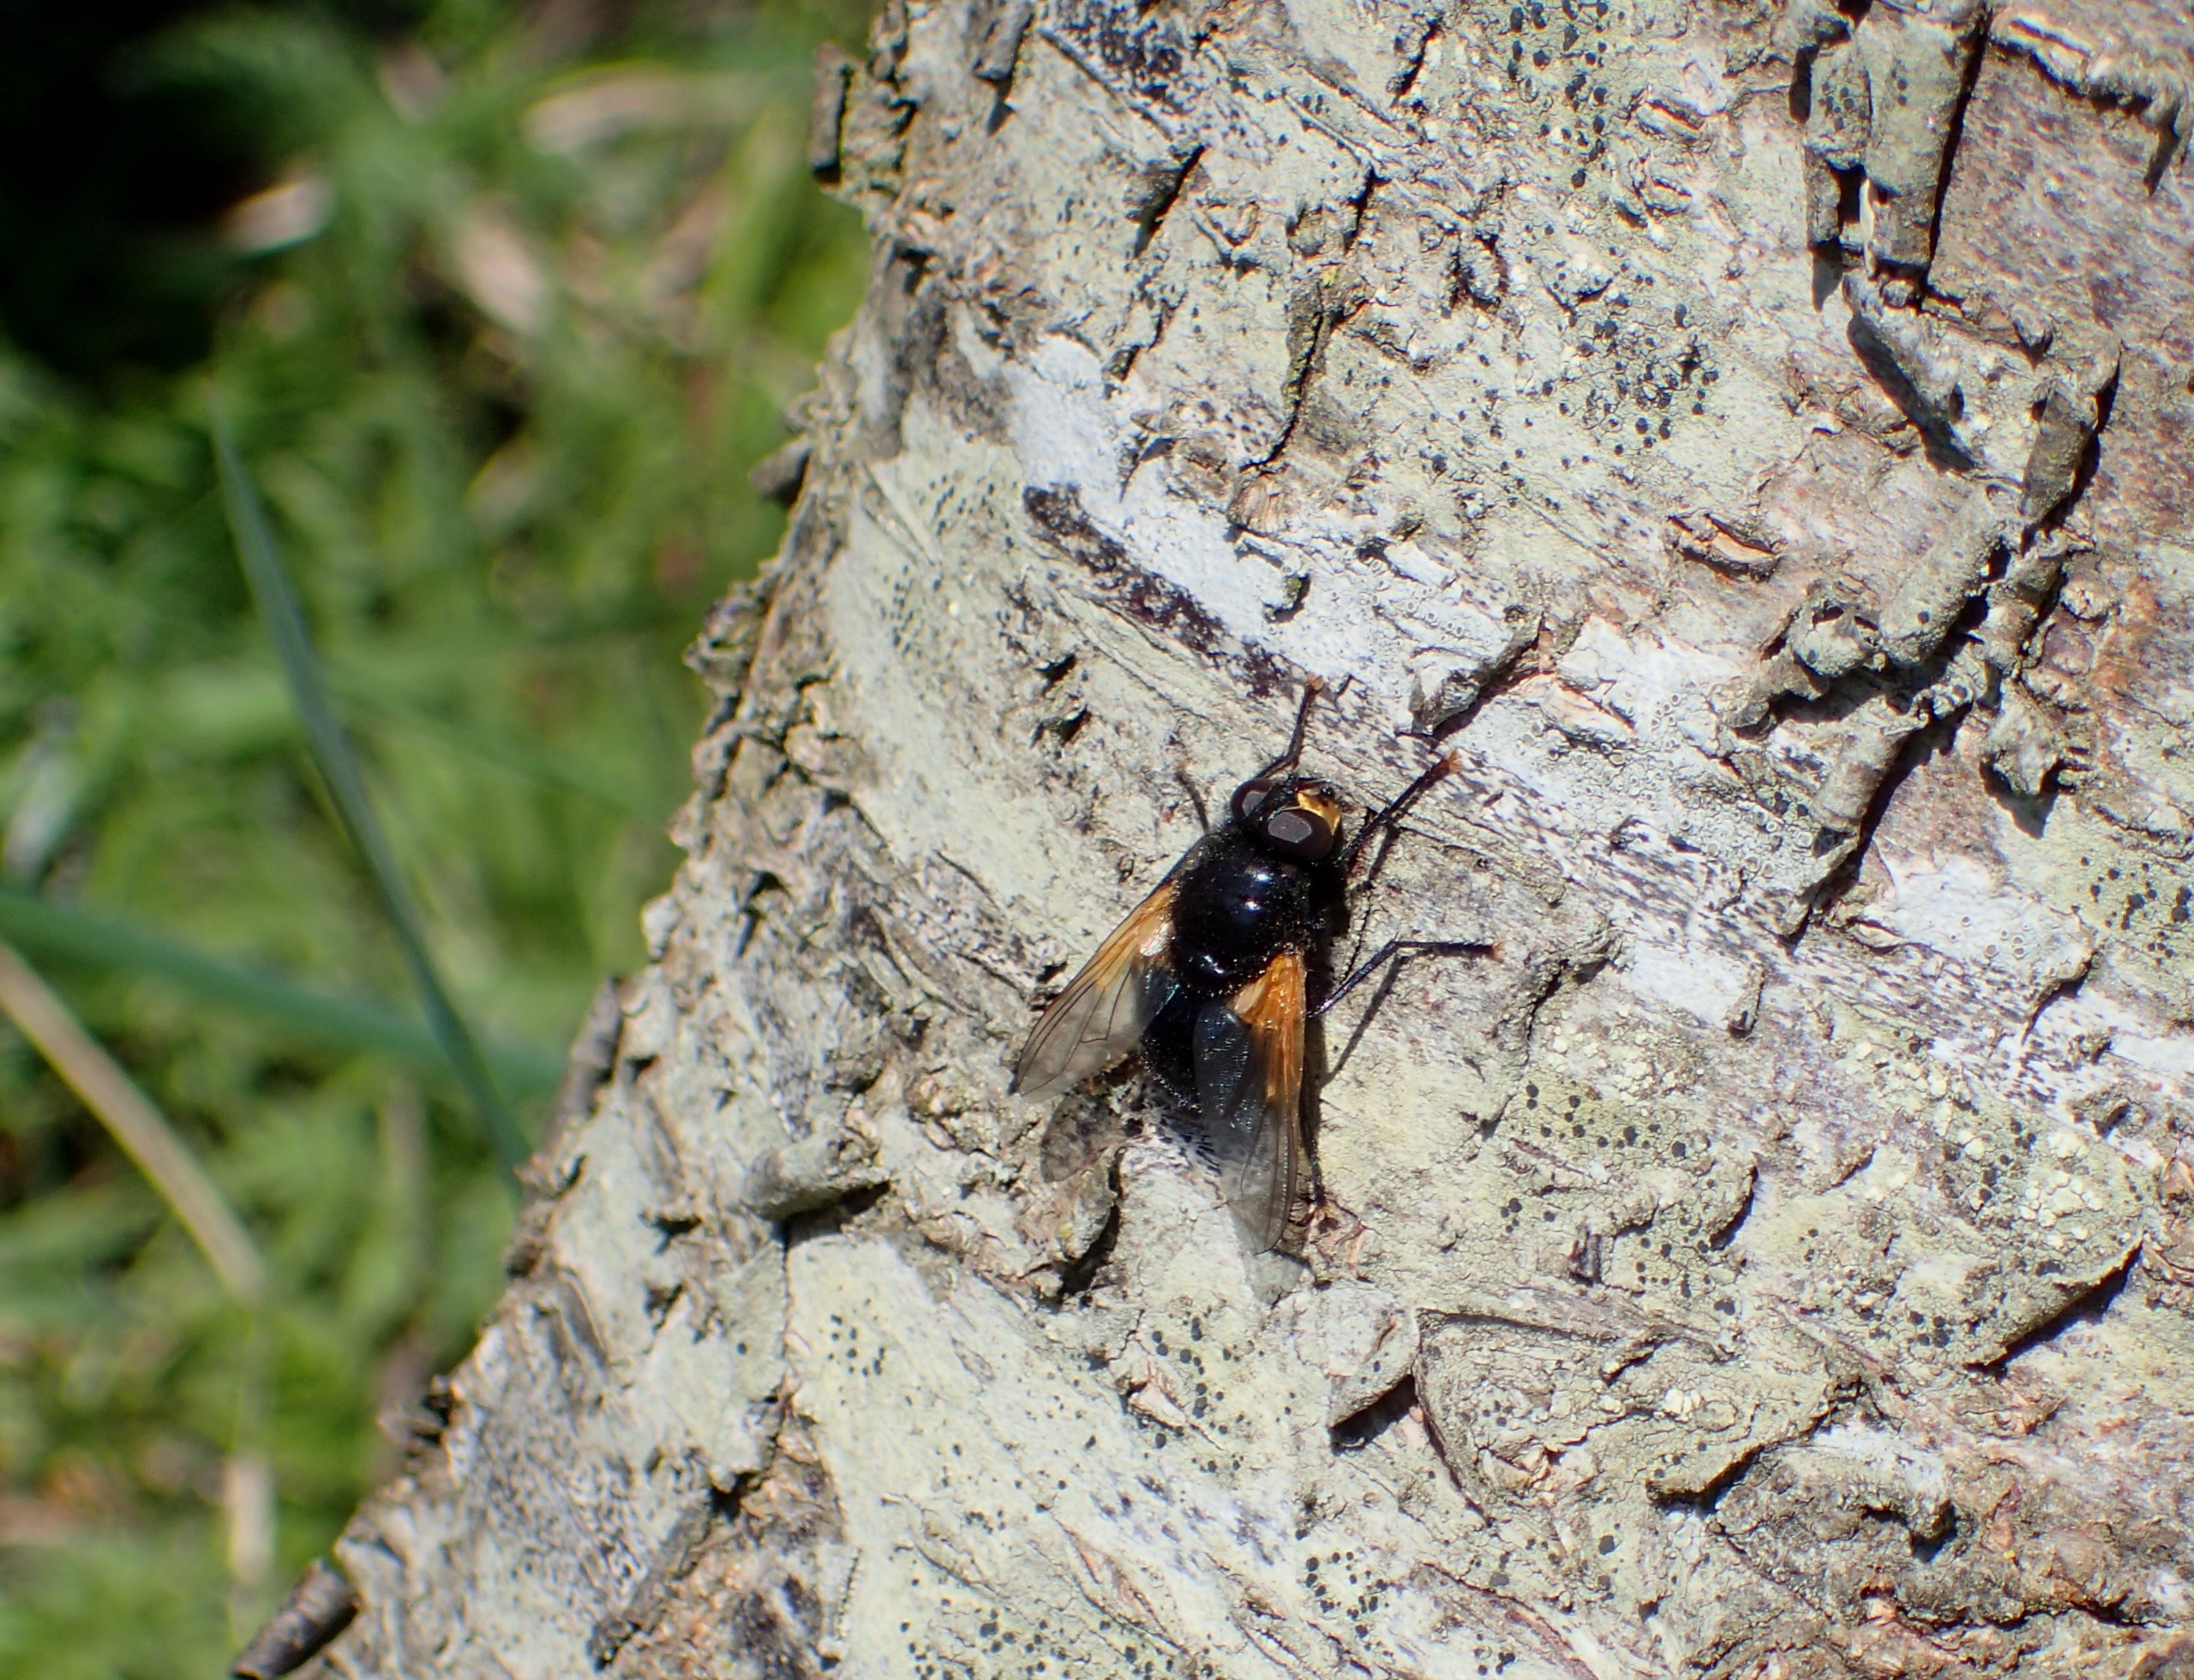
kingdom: Animalia
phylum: Arthropoda
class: Insecta
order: Diptera
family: Muscidae
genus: Mesembrina
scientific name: Mesembrina meridiana
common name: Gulvinget flue
